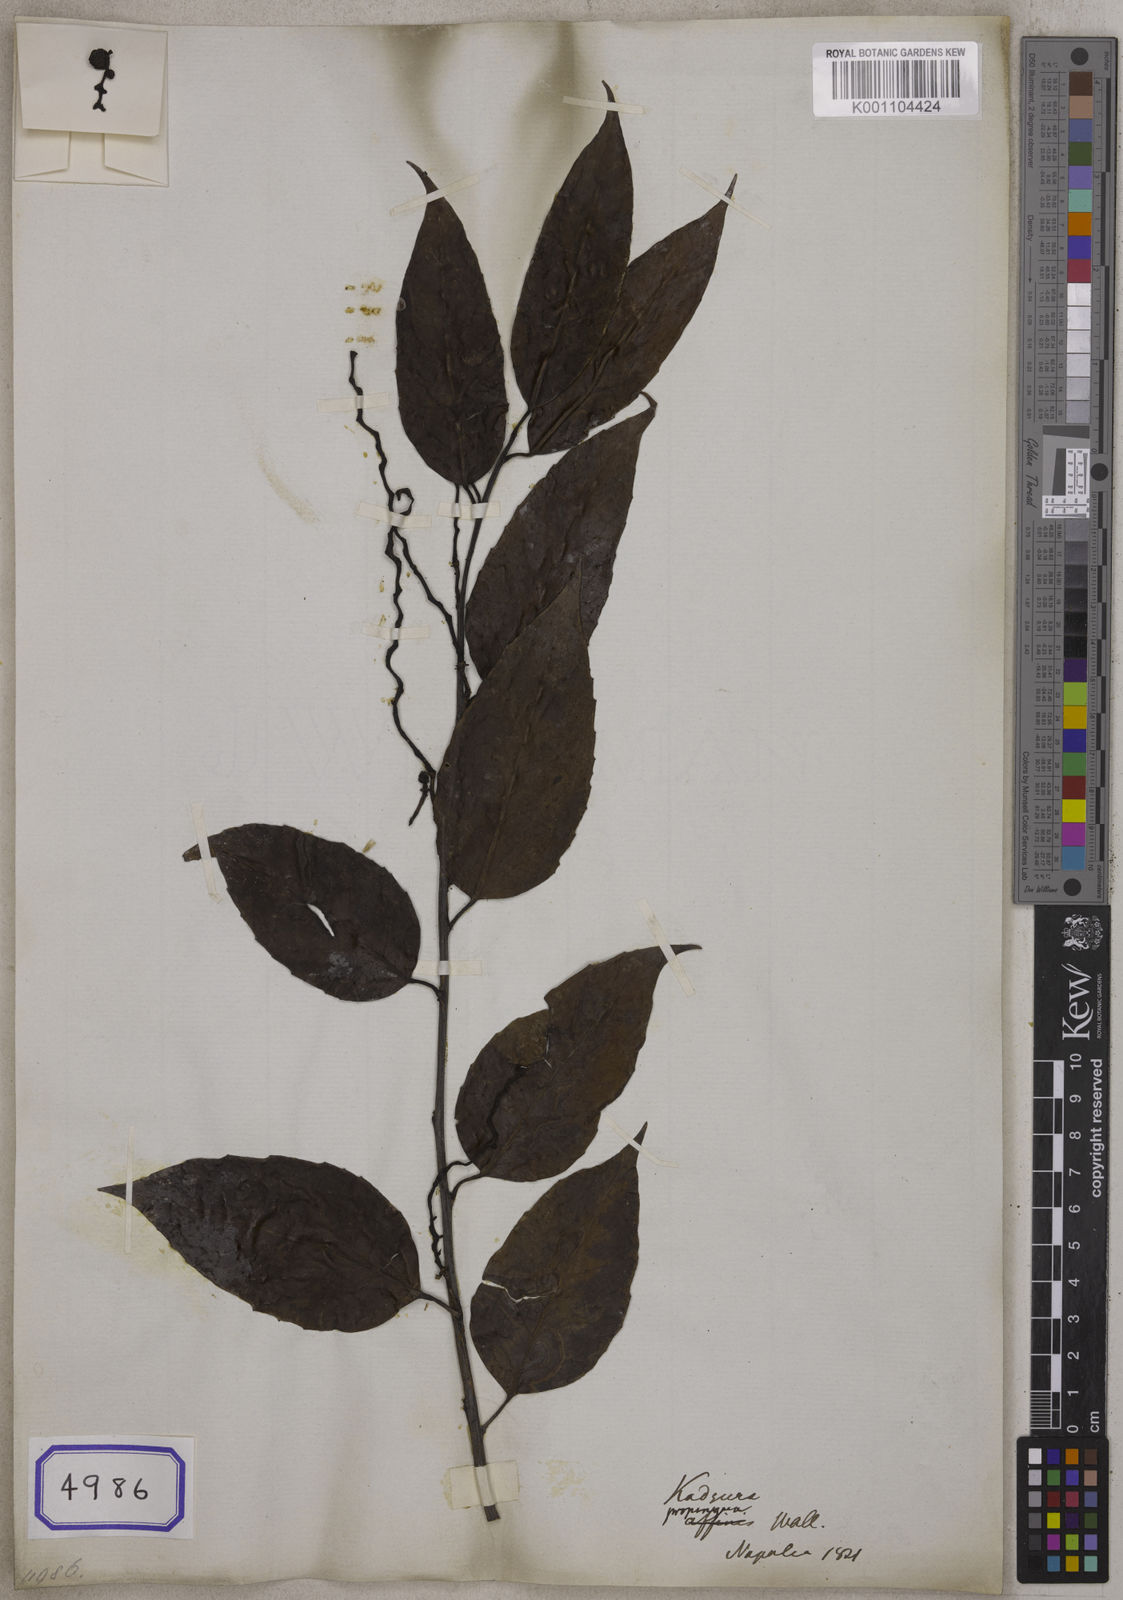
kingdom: Plantae
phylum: Tracheophyta
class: Magnoliopsida
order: Austrobaileyales
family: Schisandraceae
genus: Schisandra
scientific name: Schisandra propinqua
